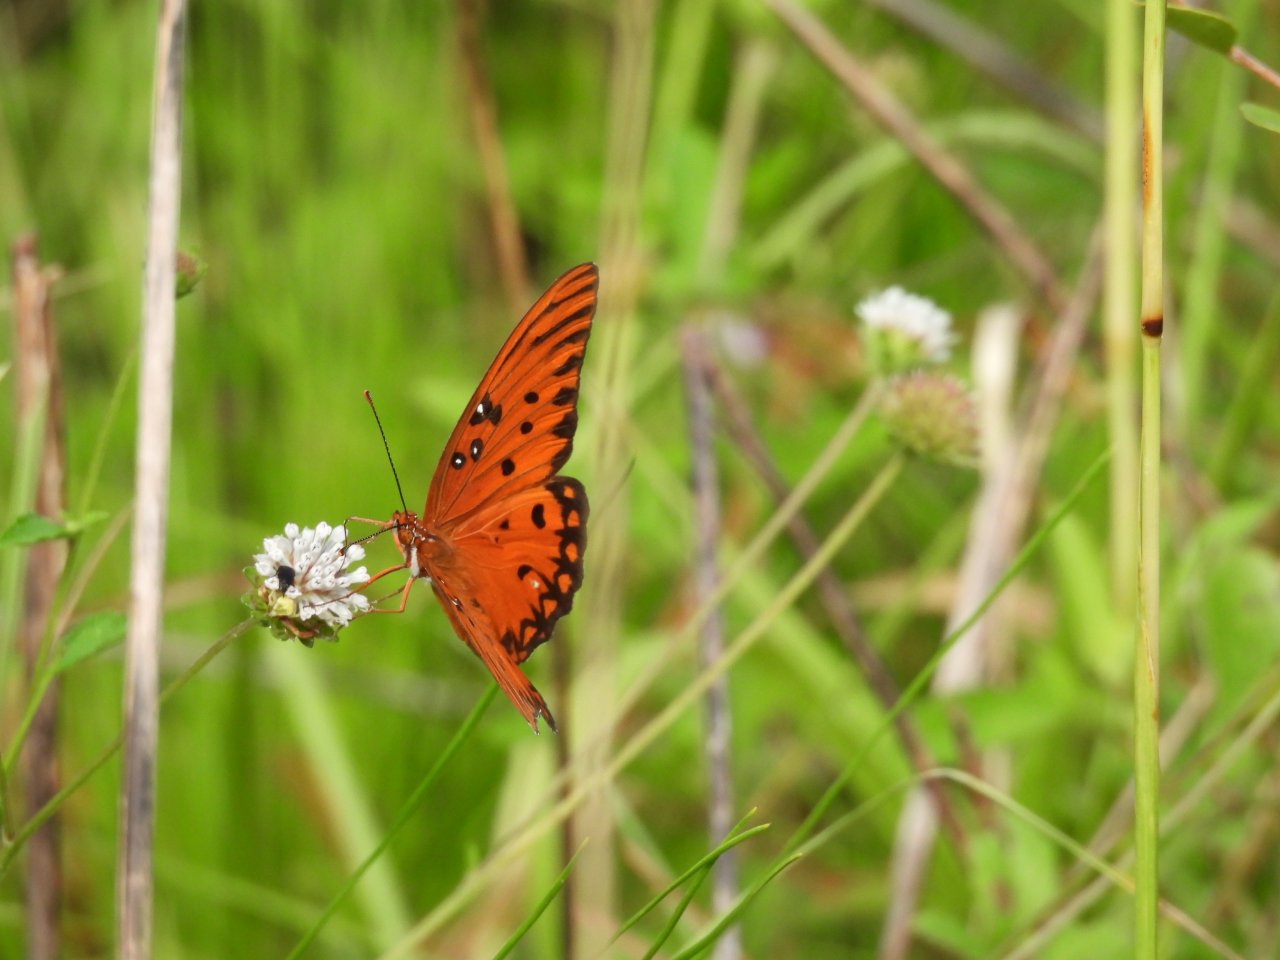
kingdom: Animalia
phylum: Arthropoda
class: Insecta
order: Lepidoptera
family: Nymphalidae
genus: Dione
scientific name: Dione vanillae
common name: Gulf Fritillary
